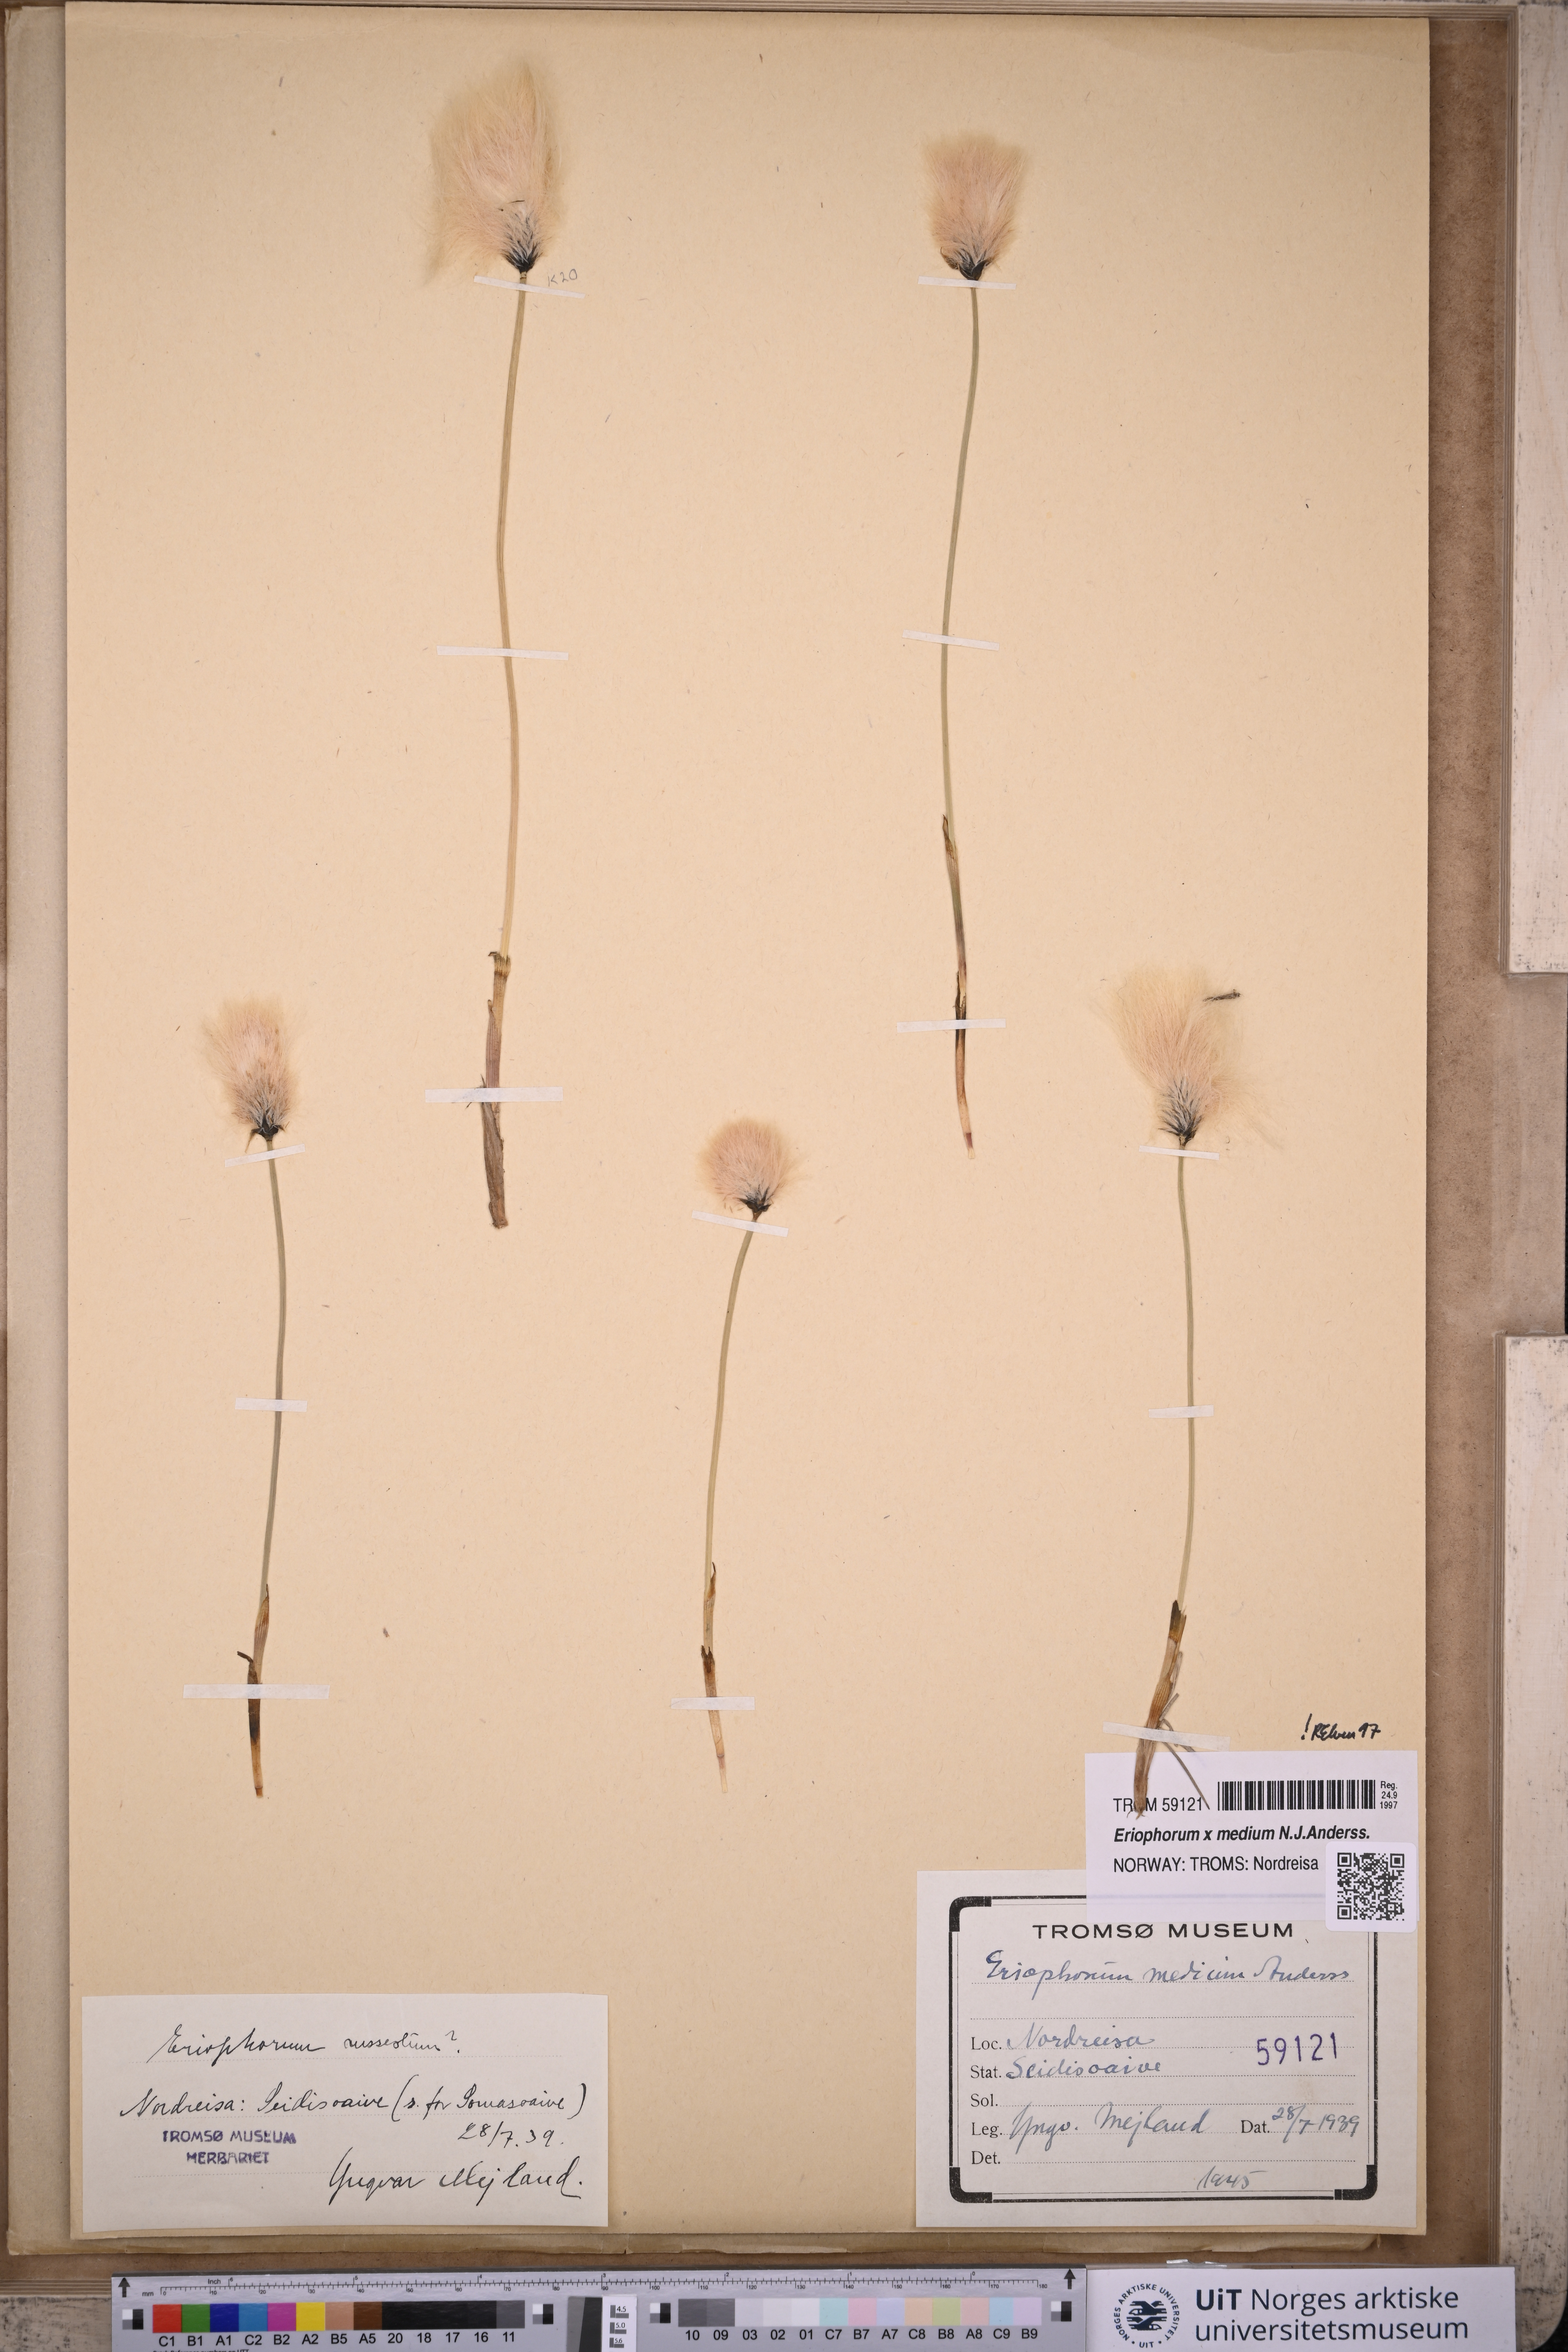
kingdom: Plantae
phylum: Tracheophyta
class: Liliopsida
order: Poales
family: Cyperaceae
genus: Eriophorum
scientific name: Eriophorum medium
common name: Intermediate cottongrass
